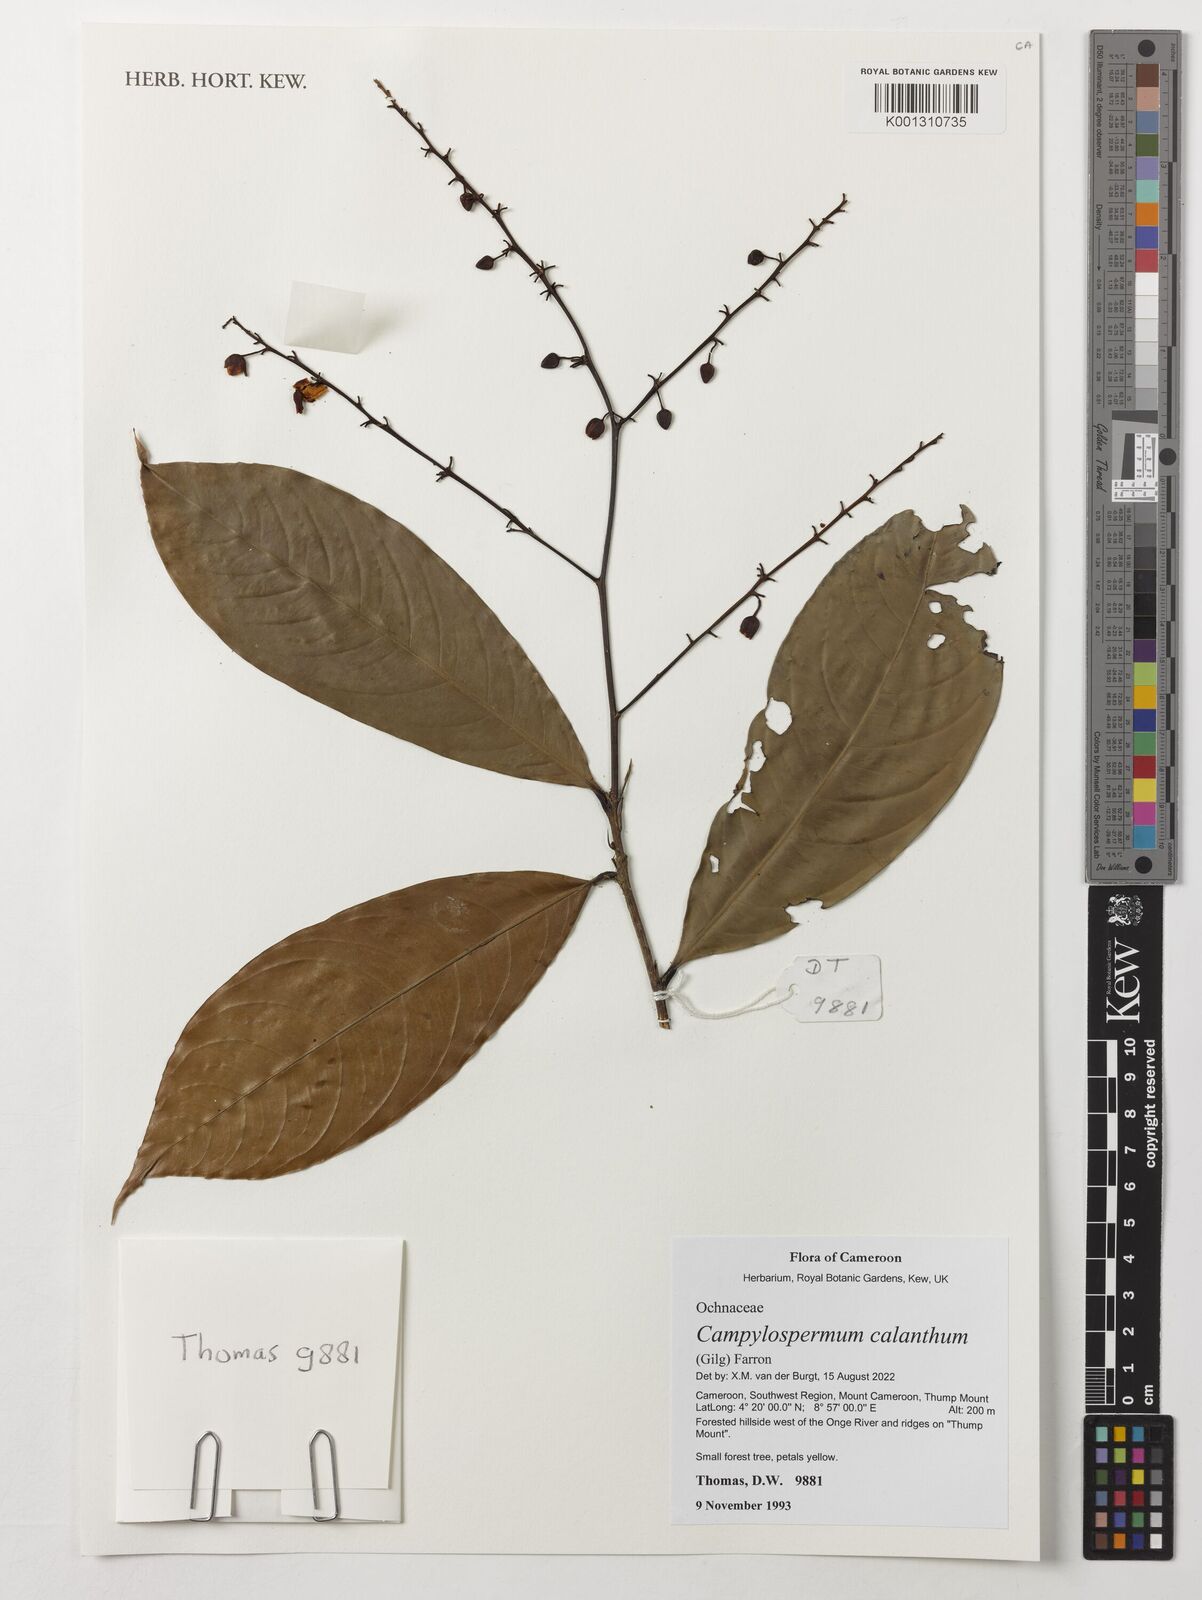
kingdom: Plantae
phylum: Tracheophyta
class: Magnoliopsida
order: Malpighiales
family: Ochnaceae
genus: Campylospermum
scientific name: Campylospermum calanthum
